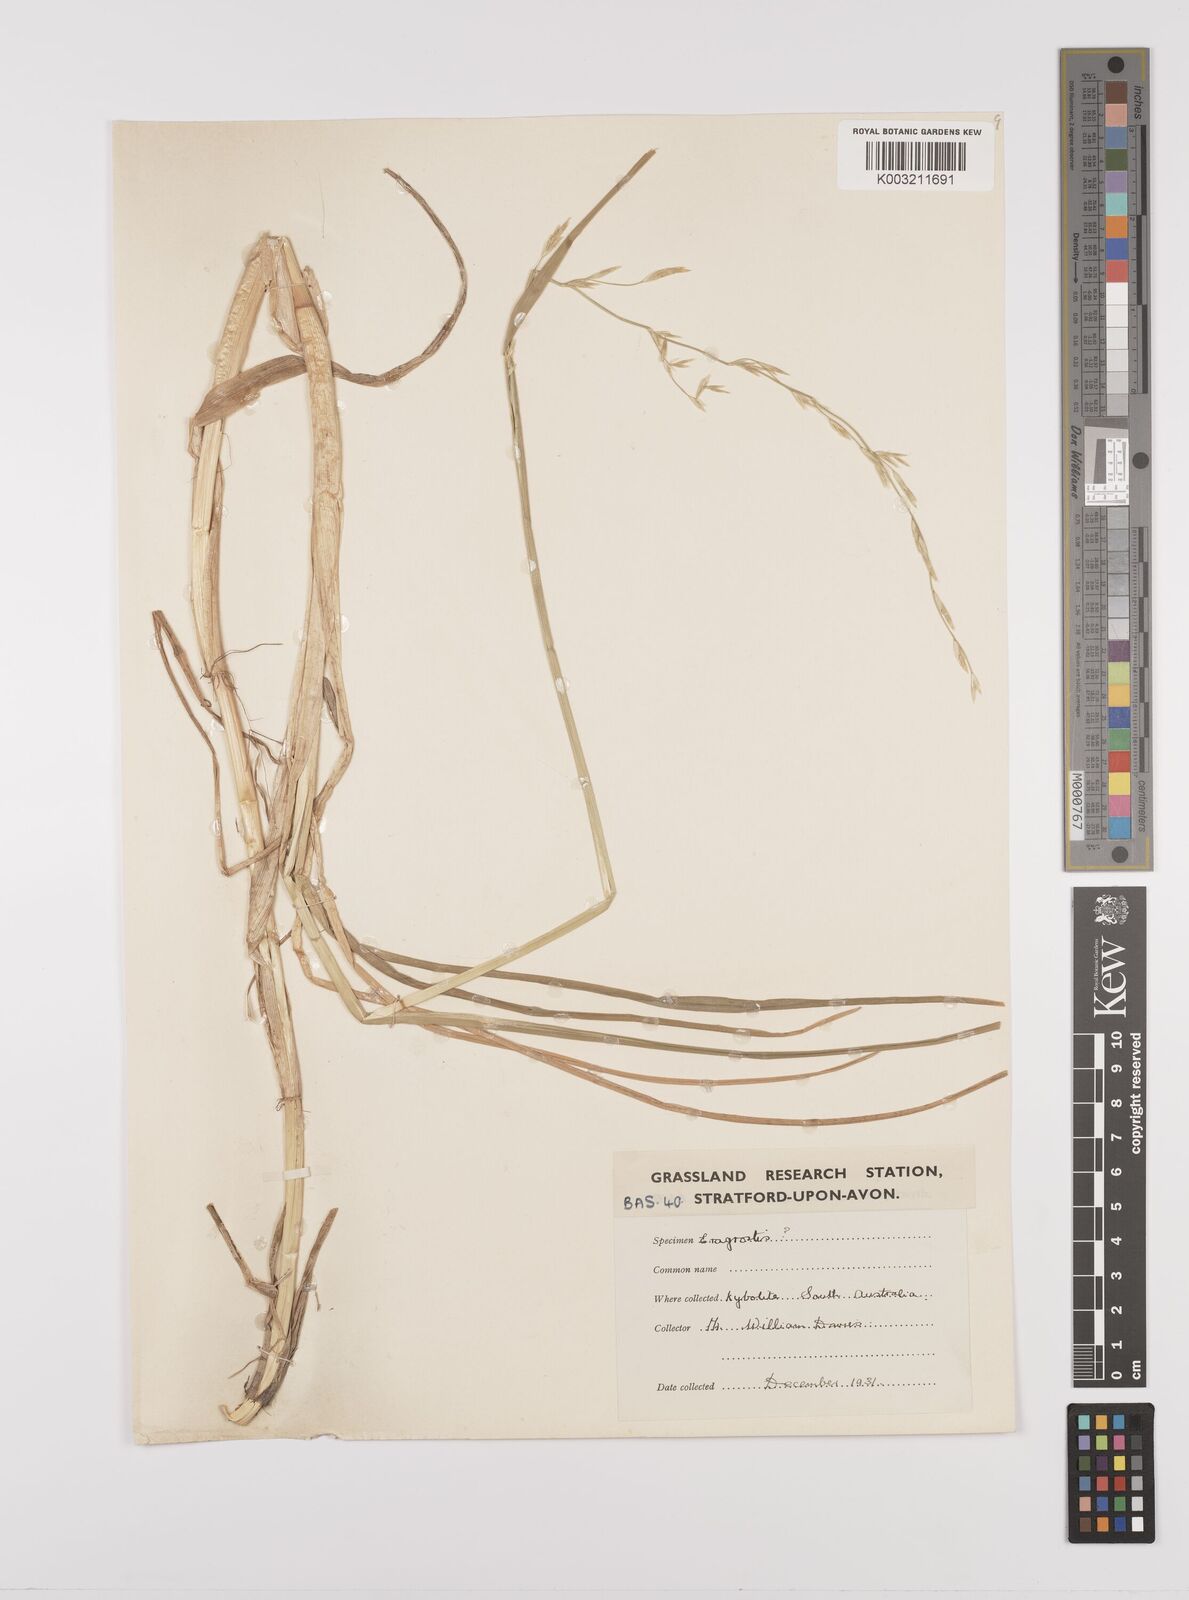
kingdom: Plantae
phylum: Tracheophyta
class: Liliopsida
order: Poales
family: Poaceae
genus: Glyceria
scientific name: Glyceria
